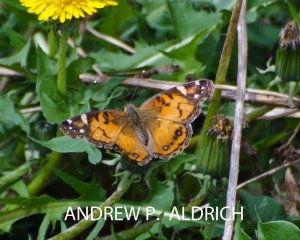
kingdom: Animalia
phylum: Arthropoda
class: Insecta
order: Lepidoptera
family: Nymphalidae
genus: Vanessa
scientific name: Vanessa virginiensis
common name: American Lady
